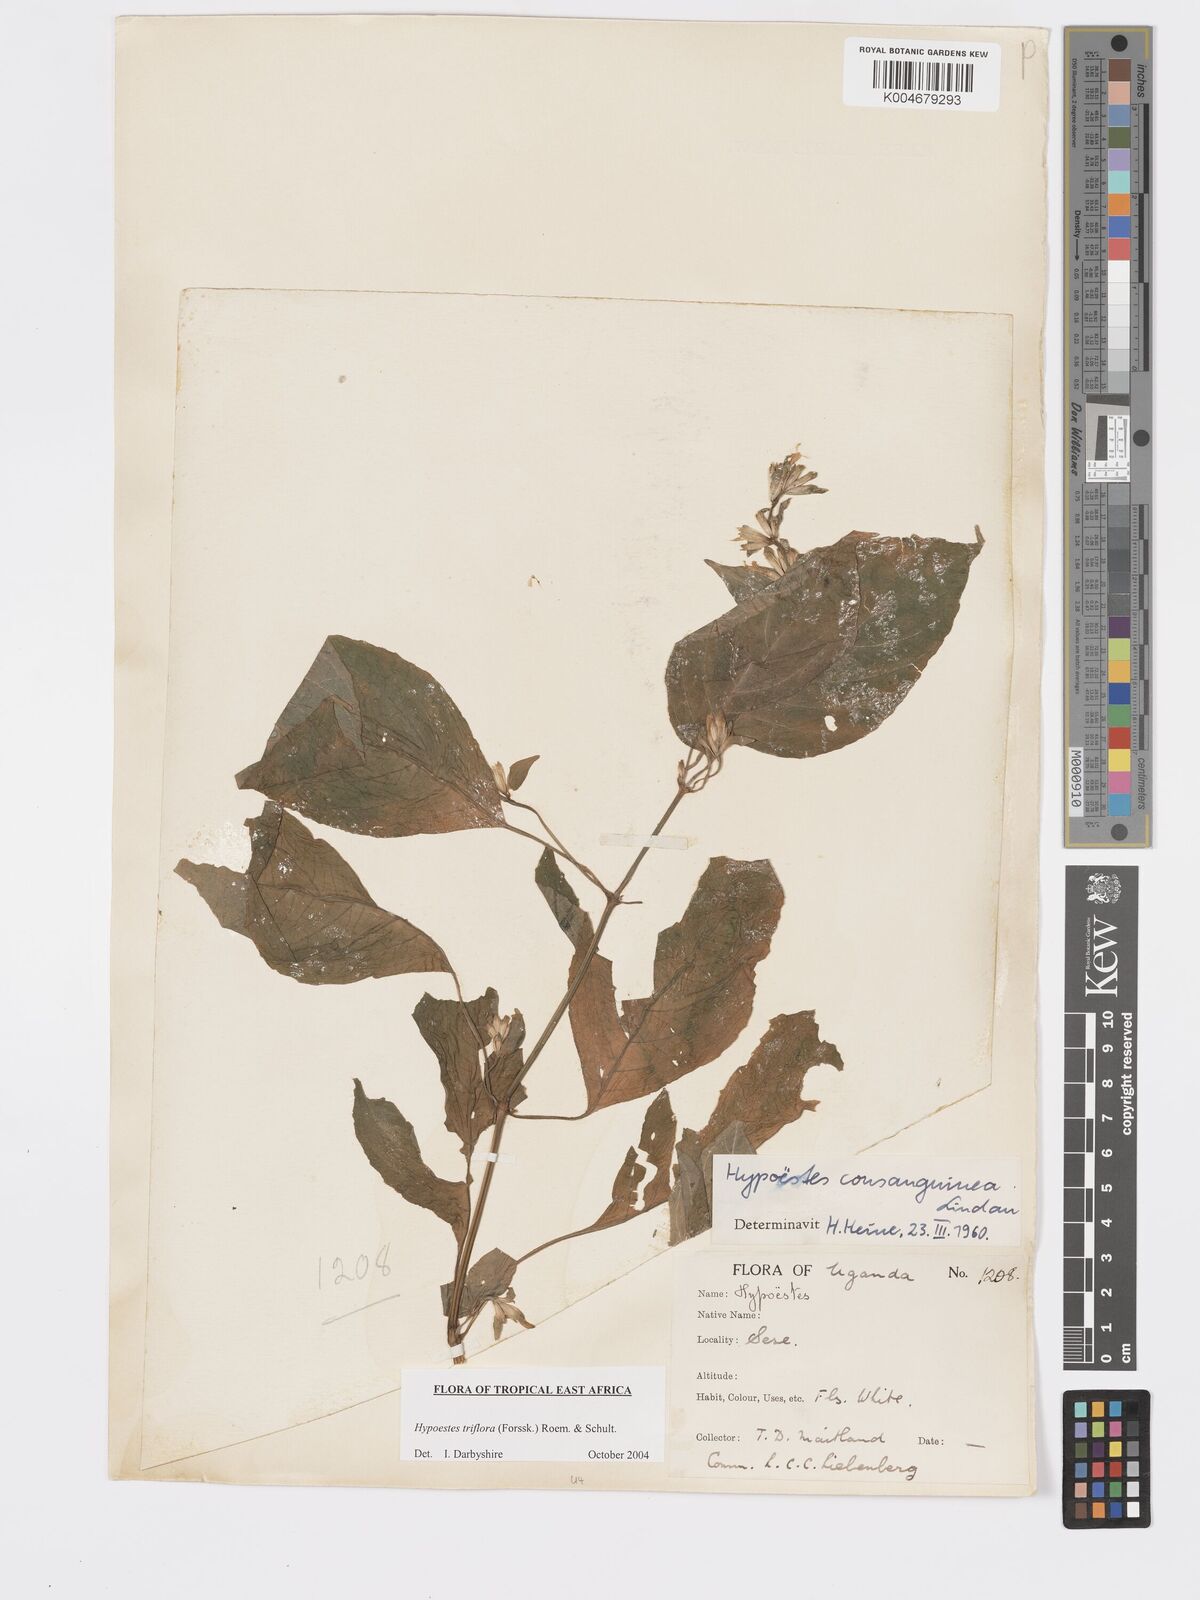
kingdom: Plantae
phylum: Tracheophyta
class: Magnoliopsida
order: Lamiales
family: Acanthaceae
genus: Hypoestes
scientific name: Hypoestes triflora
